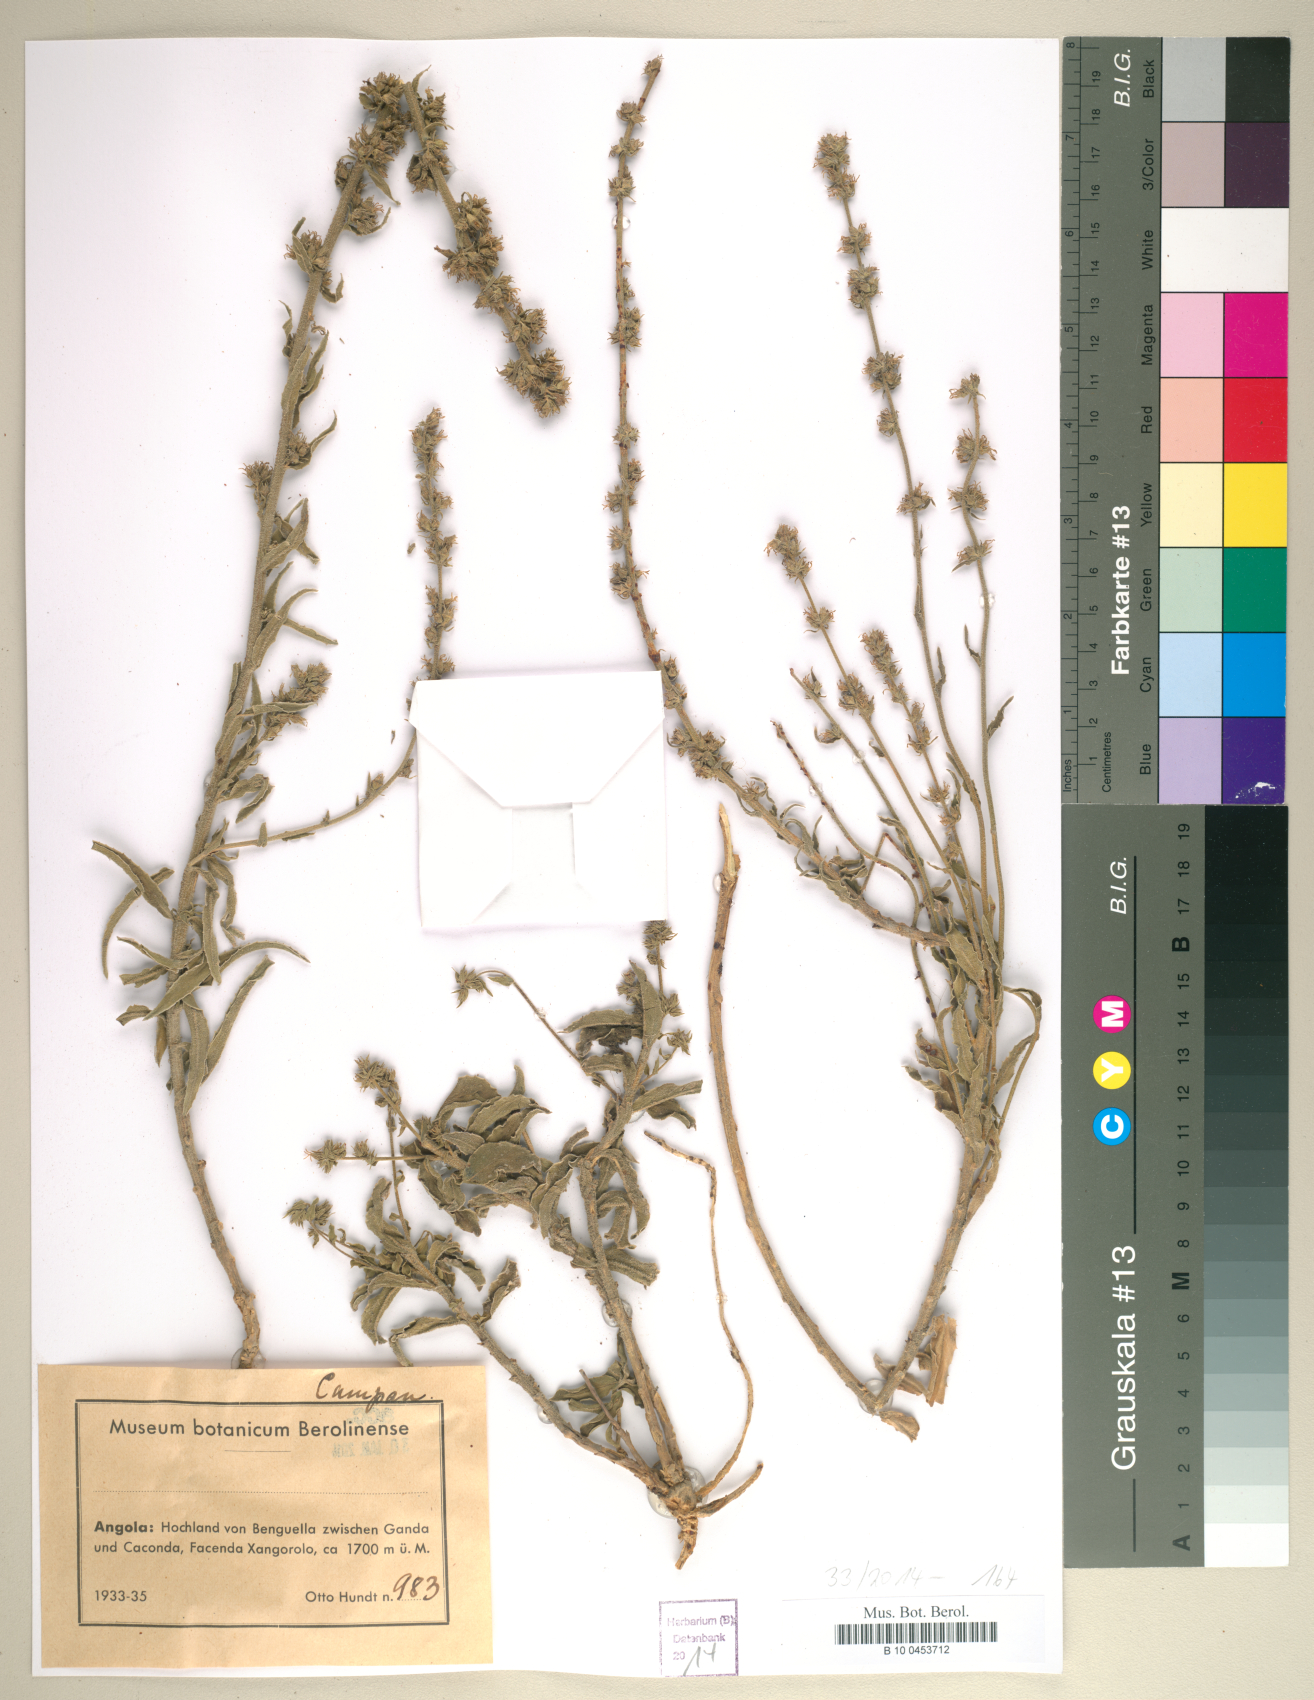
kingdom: Plantae
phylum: Tracheophyta
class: Magnoliopsida
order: Asterales
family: Campanulaceae
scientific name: Campanulaceae
